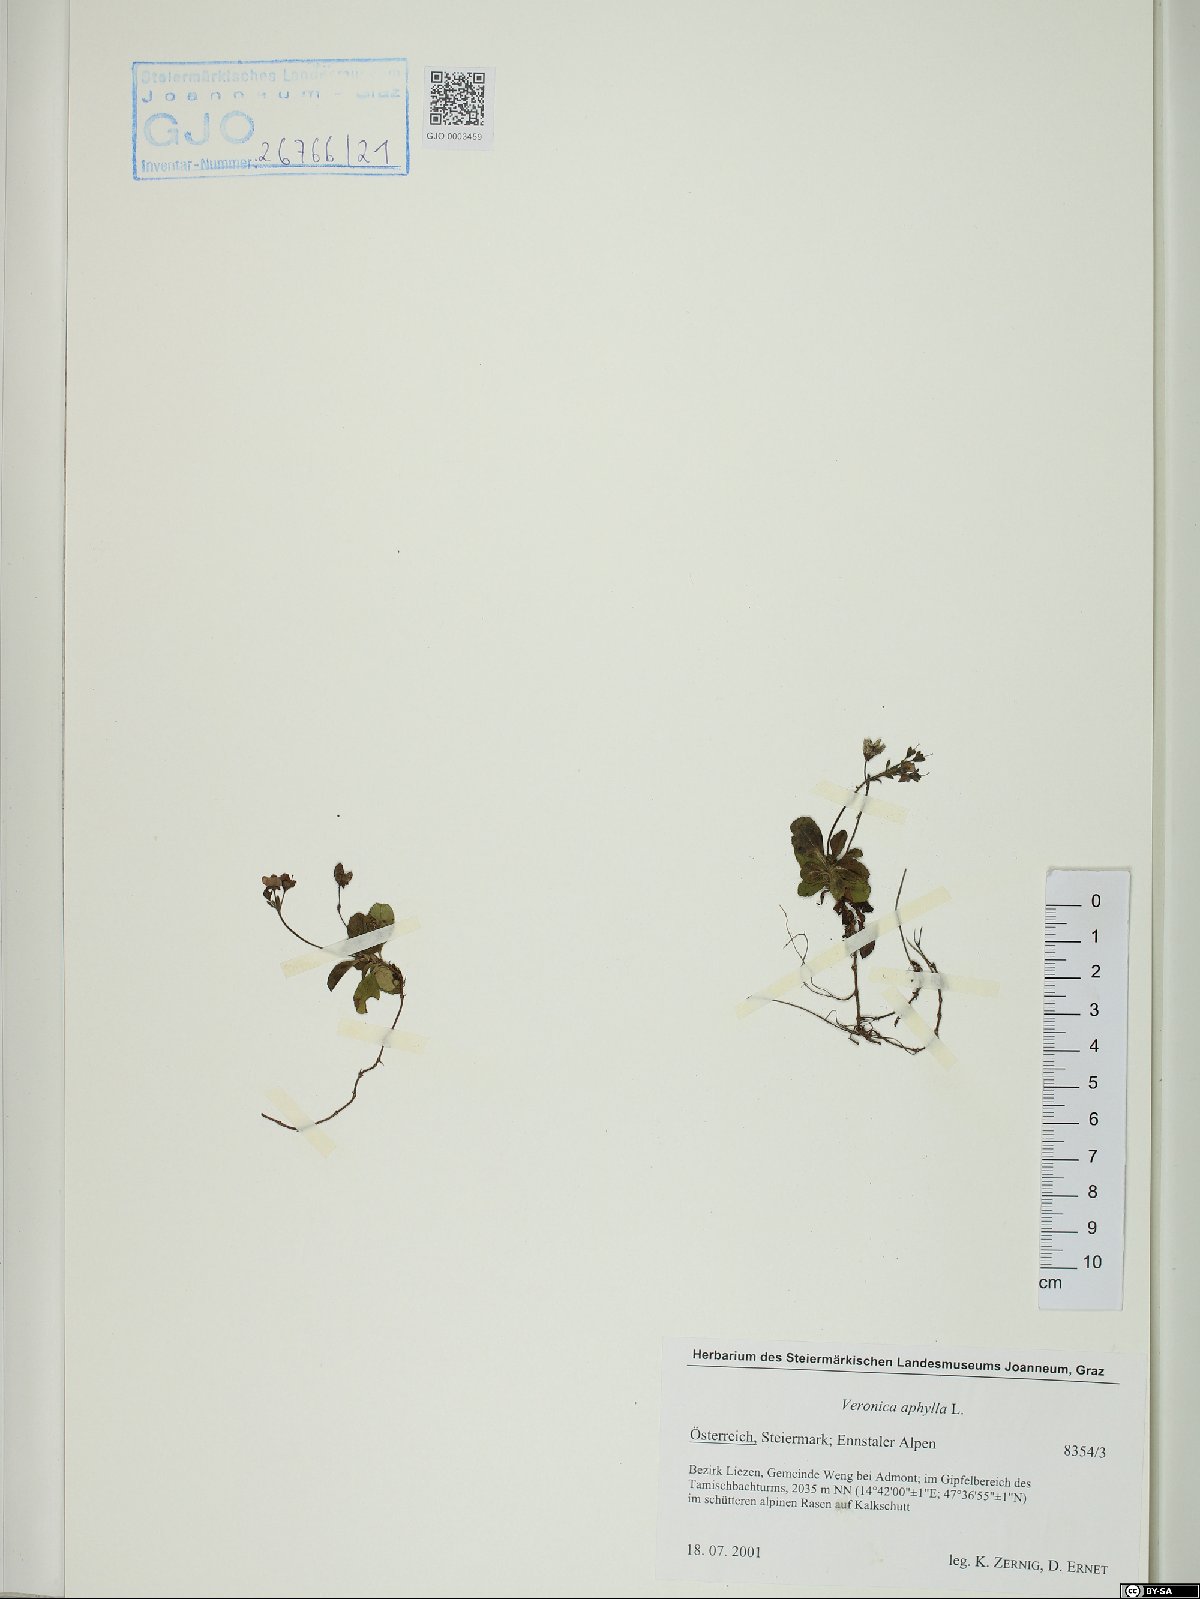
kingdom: Plantae
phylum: Tracheophyta
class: Magnoliopsida
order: Lamiales
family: Plantaginaceae
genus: Veronica
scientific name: Veronica aphylla
